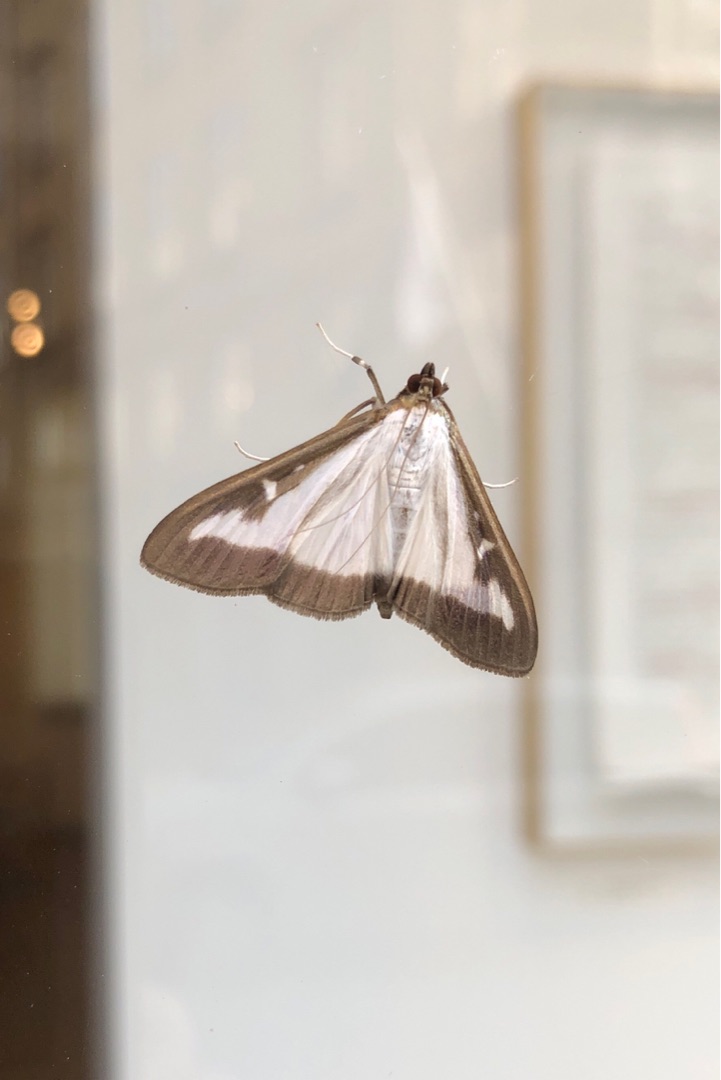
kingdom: Animalia
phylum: Arthropoda
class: Insecta
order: Lepidoptera
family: Crambidae
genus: Cydalima
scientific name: Cydalima perspectalis
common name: Buksbomhalvmøl
